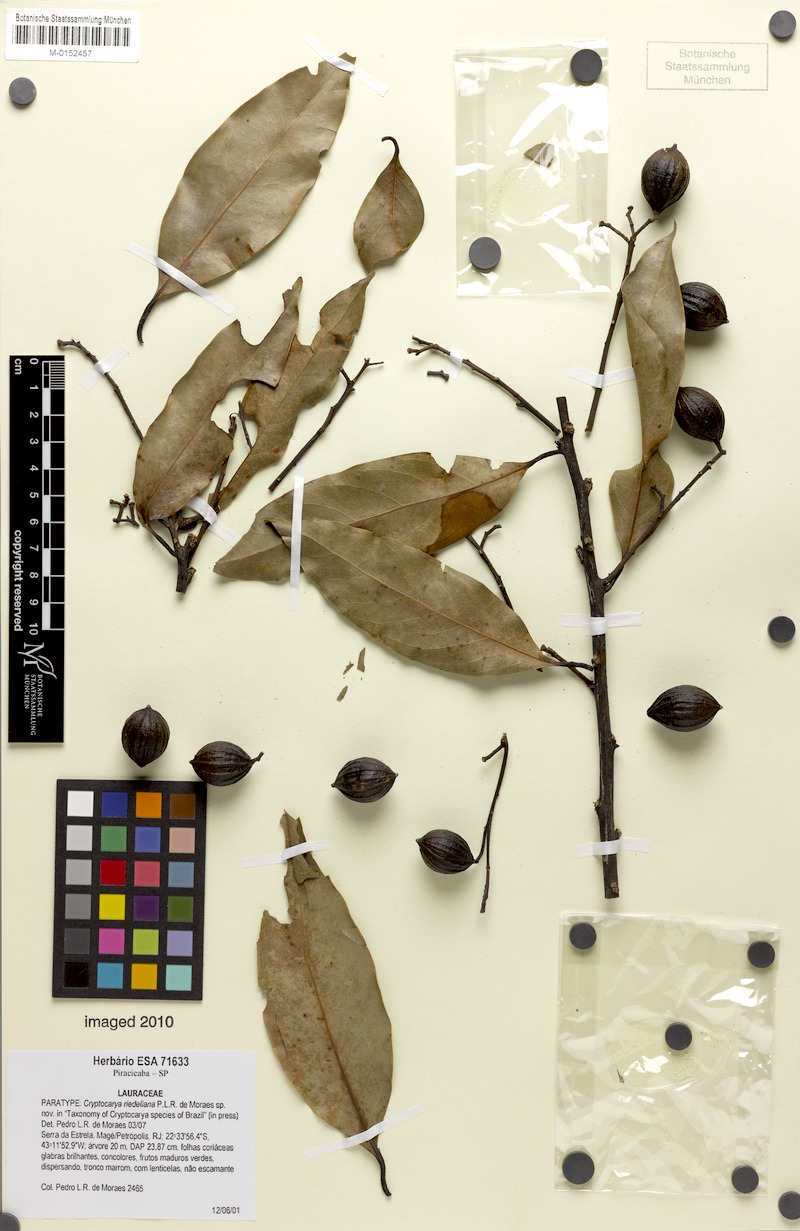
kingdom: Plantae
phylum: Tracheophyta
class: Magnoliopsida
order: Laurales
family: Lauraceae
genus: Cryptocarya
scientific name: Cryptocarya riedeliana
